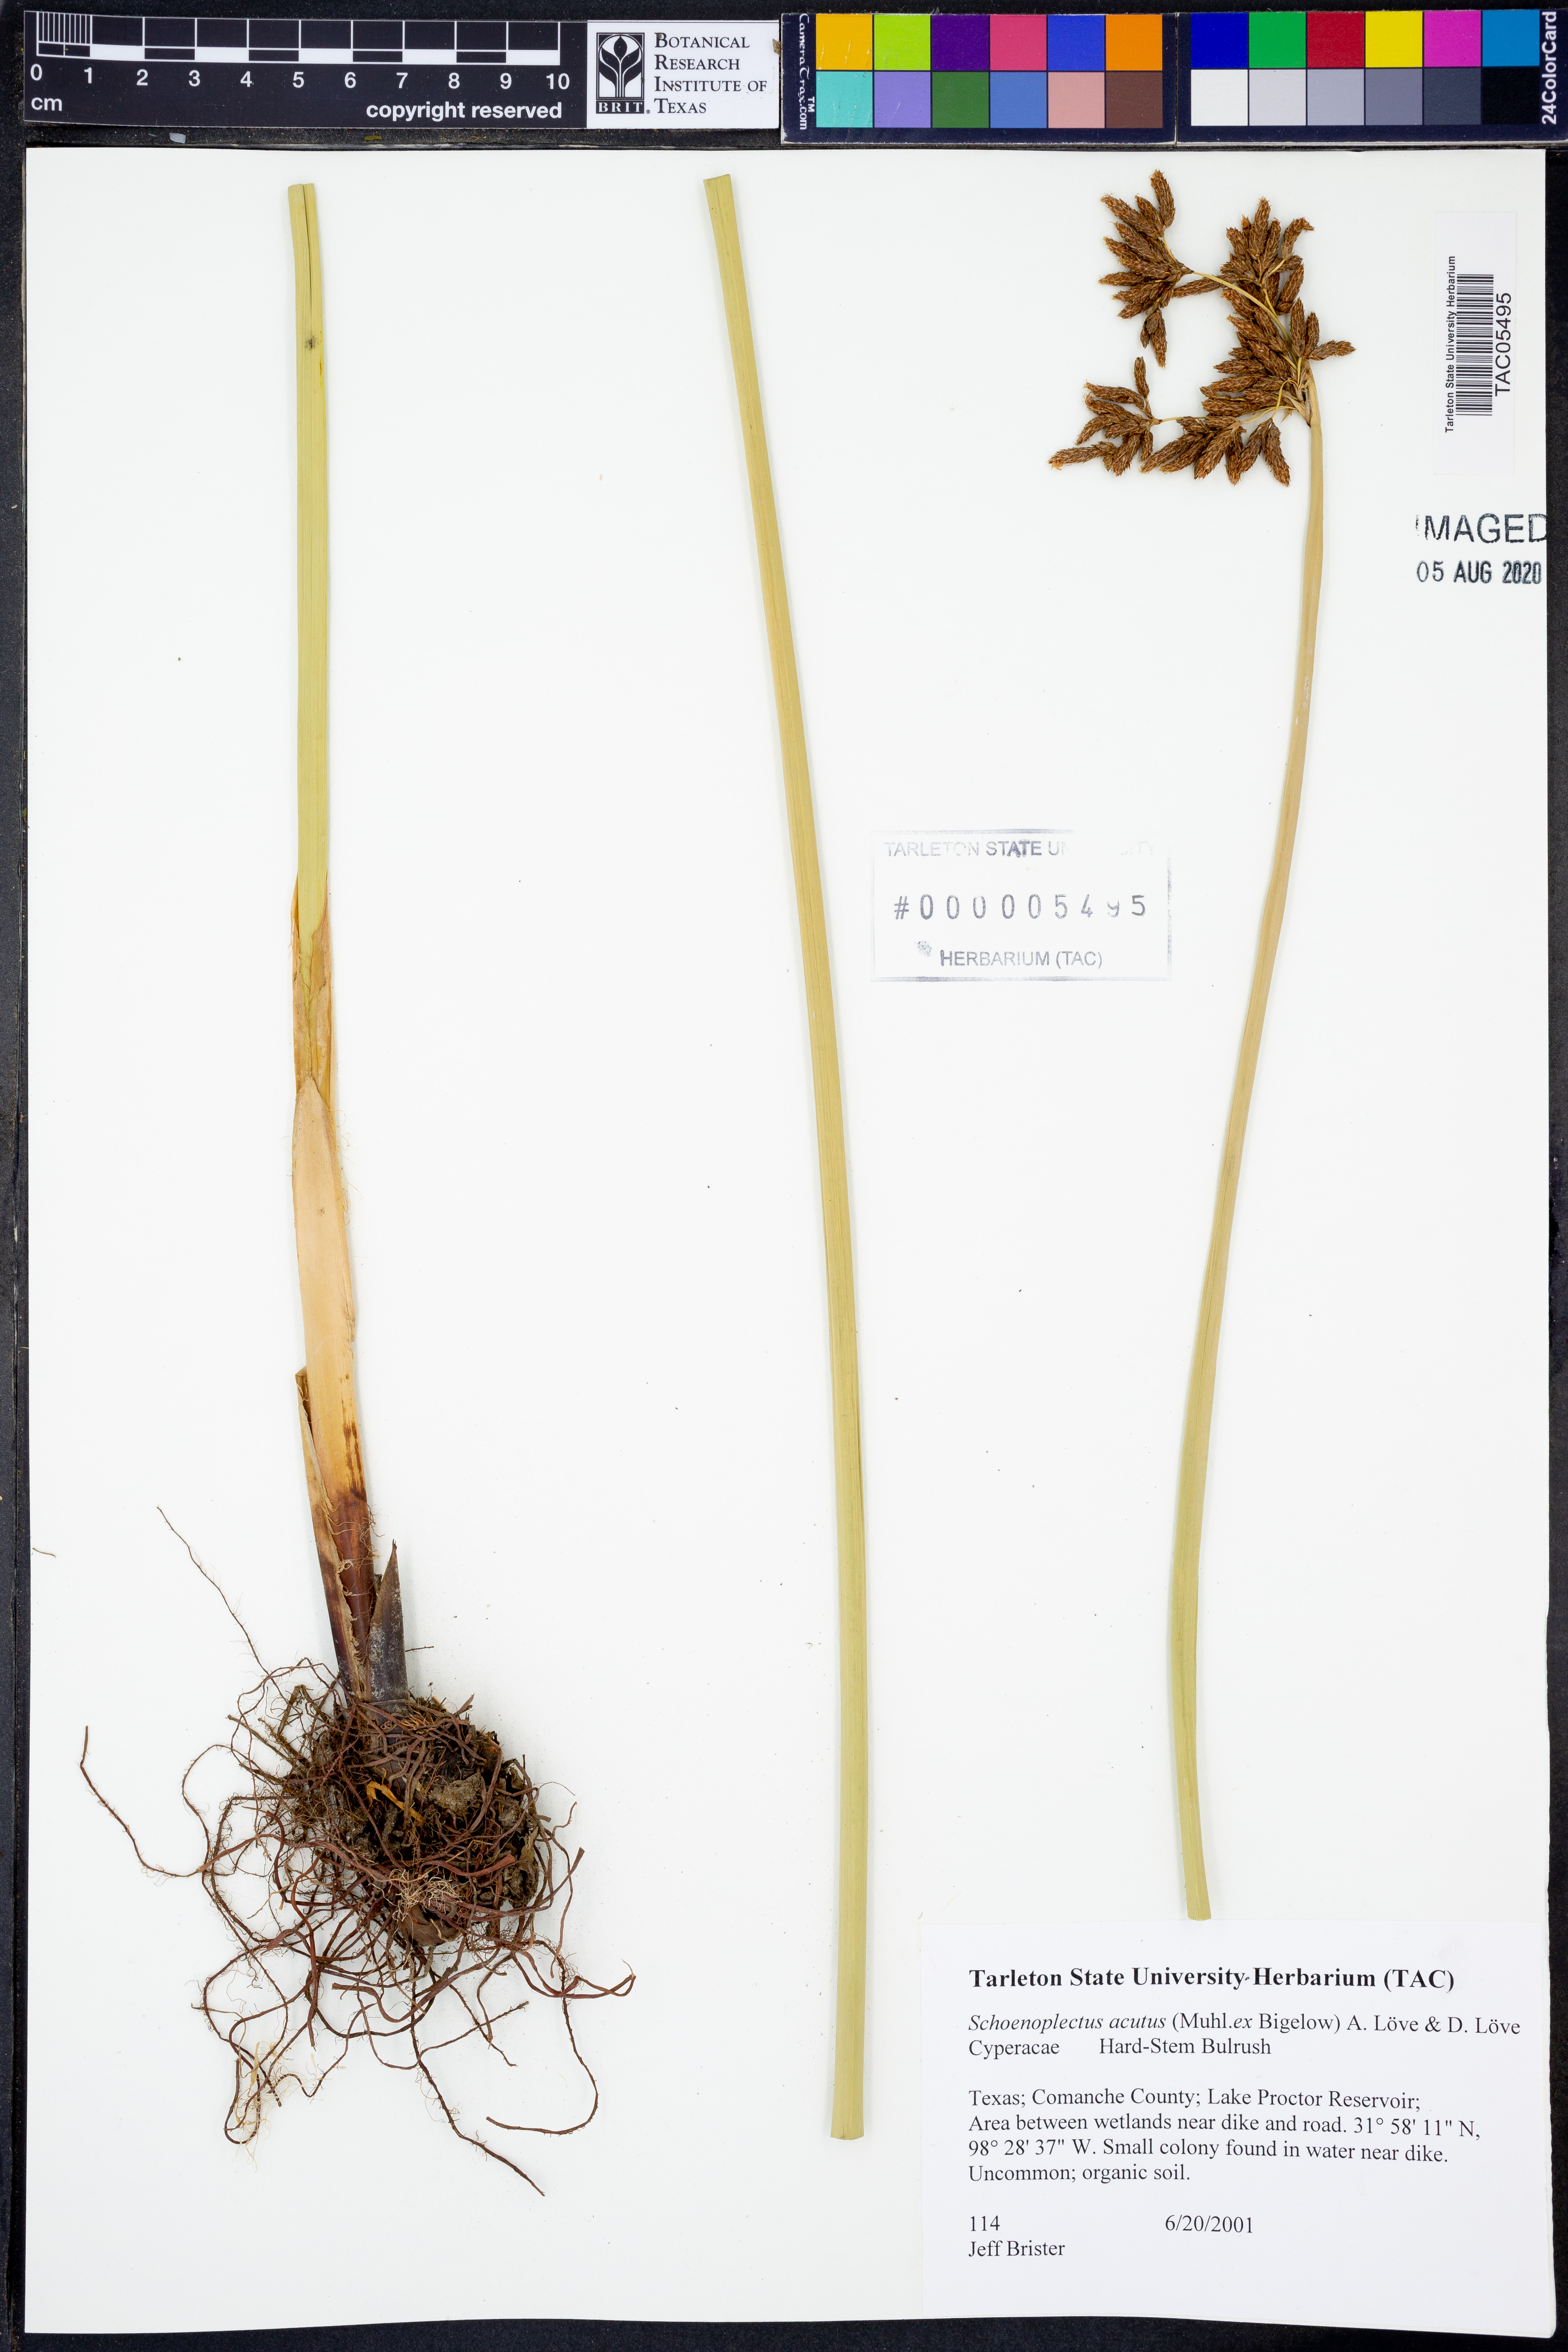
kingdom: Plantae
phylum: Tracheophyta
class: Liliopsida
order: Poales
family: Cyperaceae
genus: Schoenoplectus
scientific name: Schoenoplectus acutus
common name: Hardstem bulrush
